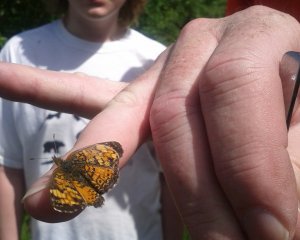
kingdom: Animalia
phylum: Arthropoda
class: Insecta
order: Lepidoptera
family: Nymphalidae
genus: Phyciodes
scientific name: Phyciodes tharos
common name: Northern Crescent
